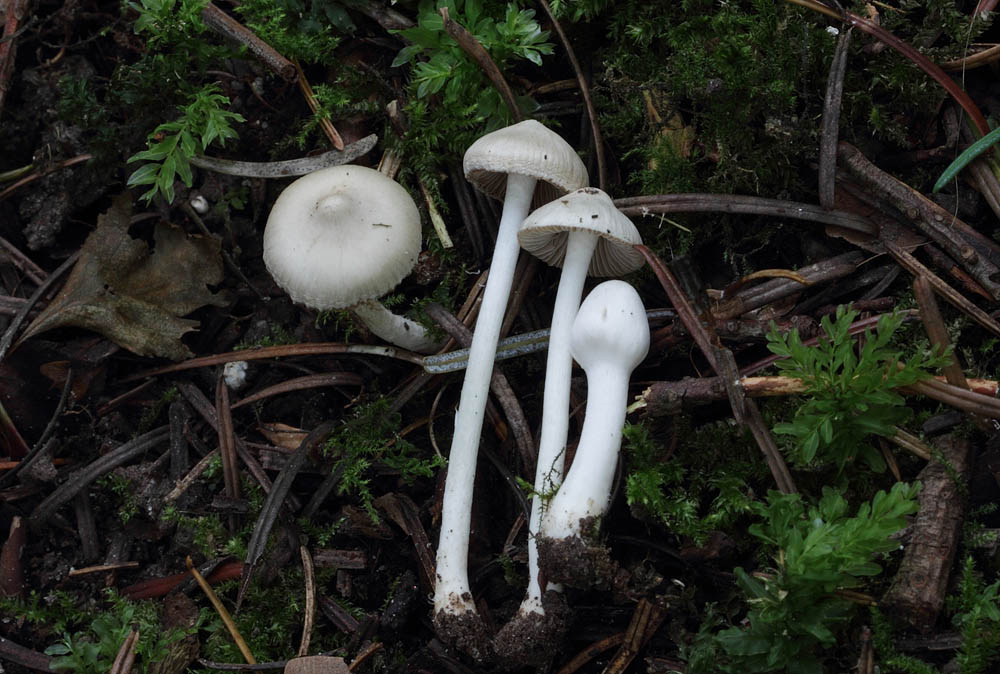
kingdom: Fungi
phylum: Basidiomycota
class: Agaricomycetes
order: Agaricales
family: Inocybaceae
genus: Inocybe
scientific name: Inocybe
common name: almindelig trævlhat
